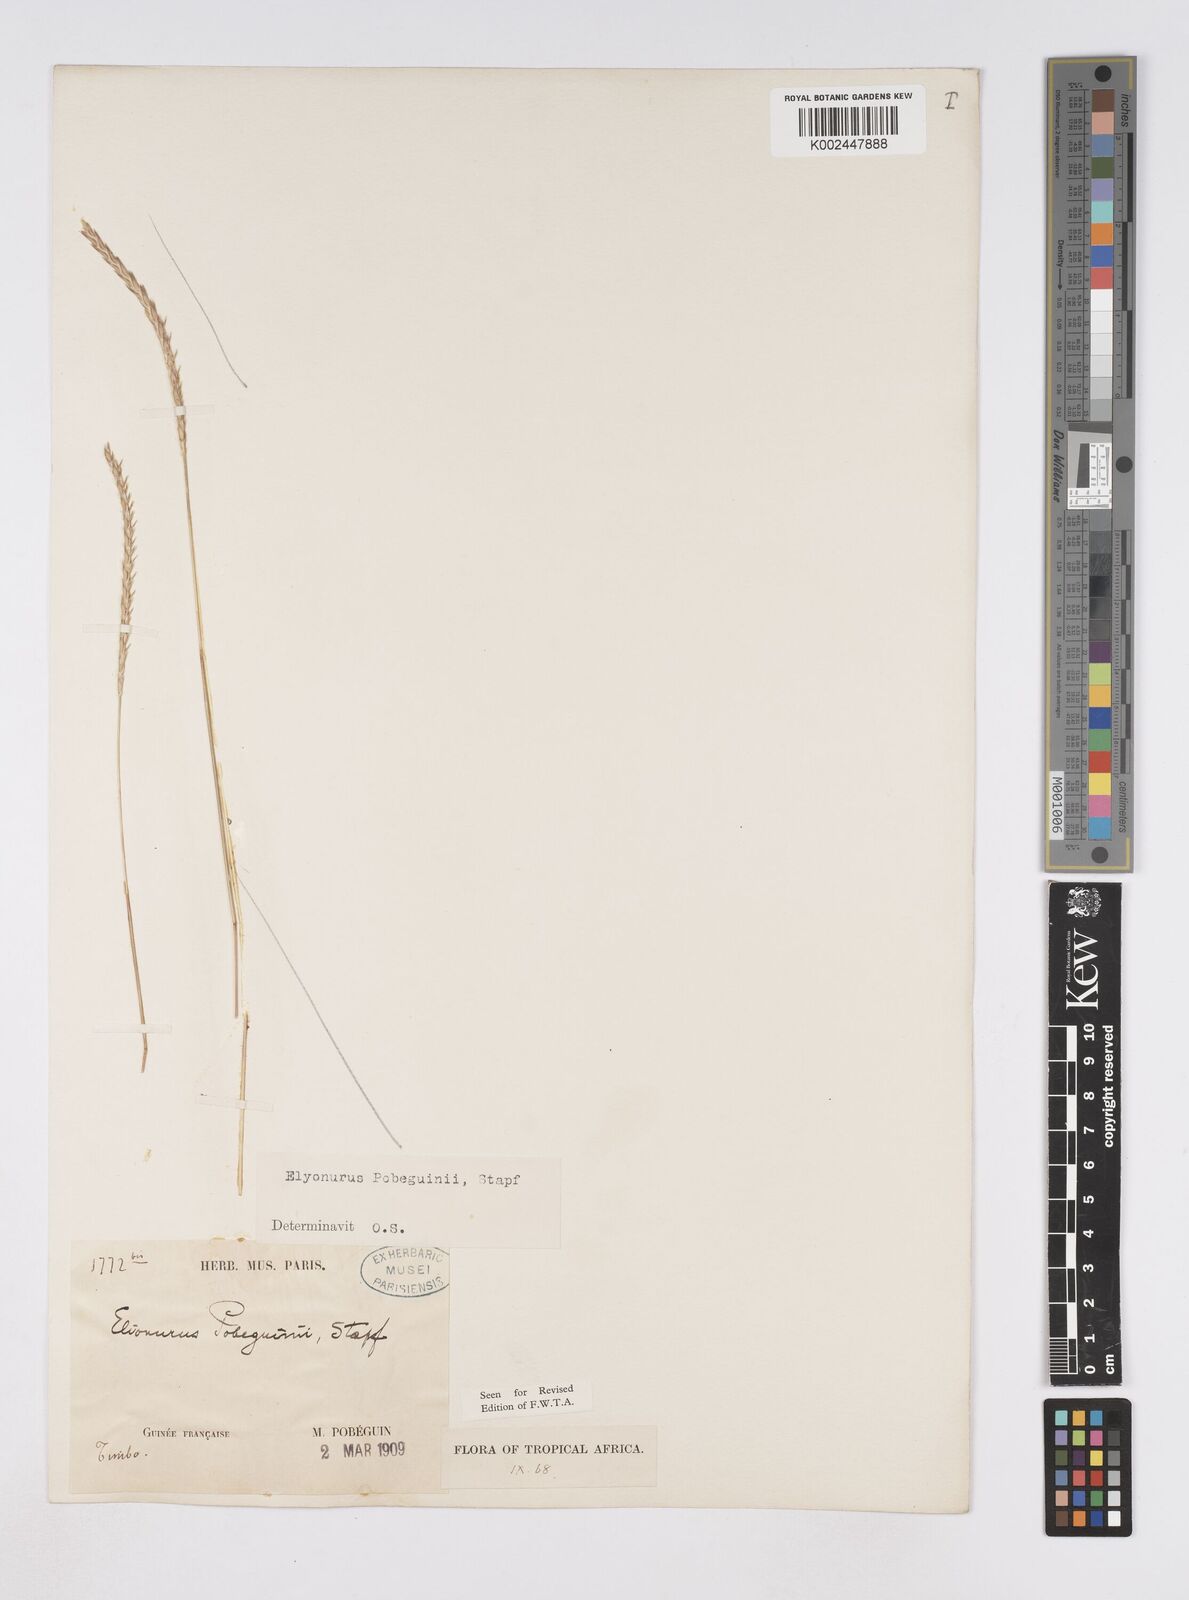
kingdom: Plantae
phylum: Tracheophyta
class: Liliopsida
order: Poales
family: Poaceae
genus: Elionurus
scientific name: Elionurus ciliaris
